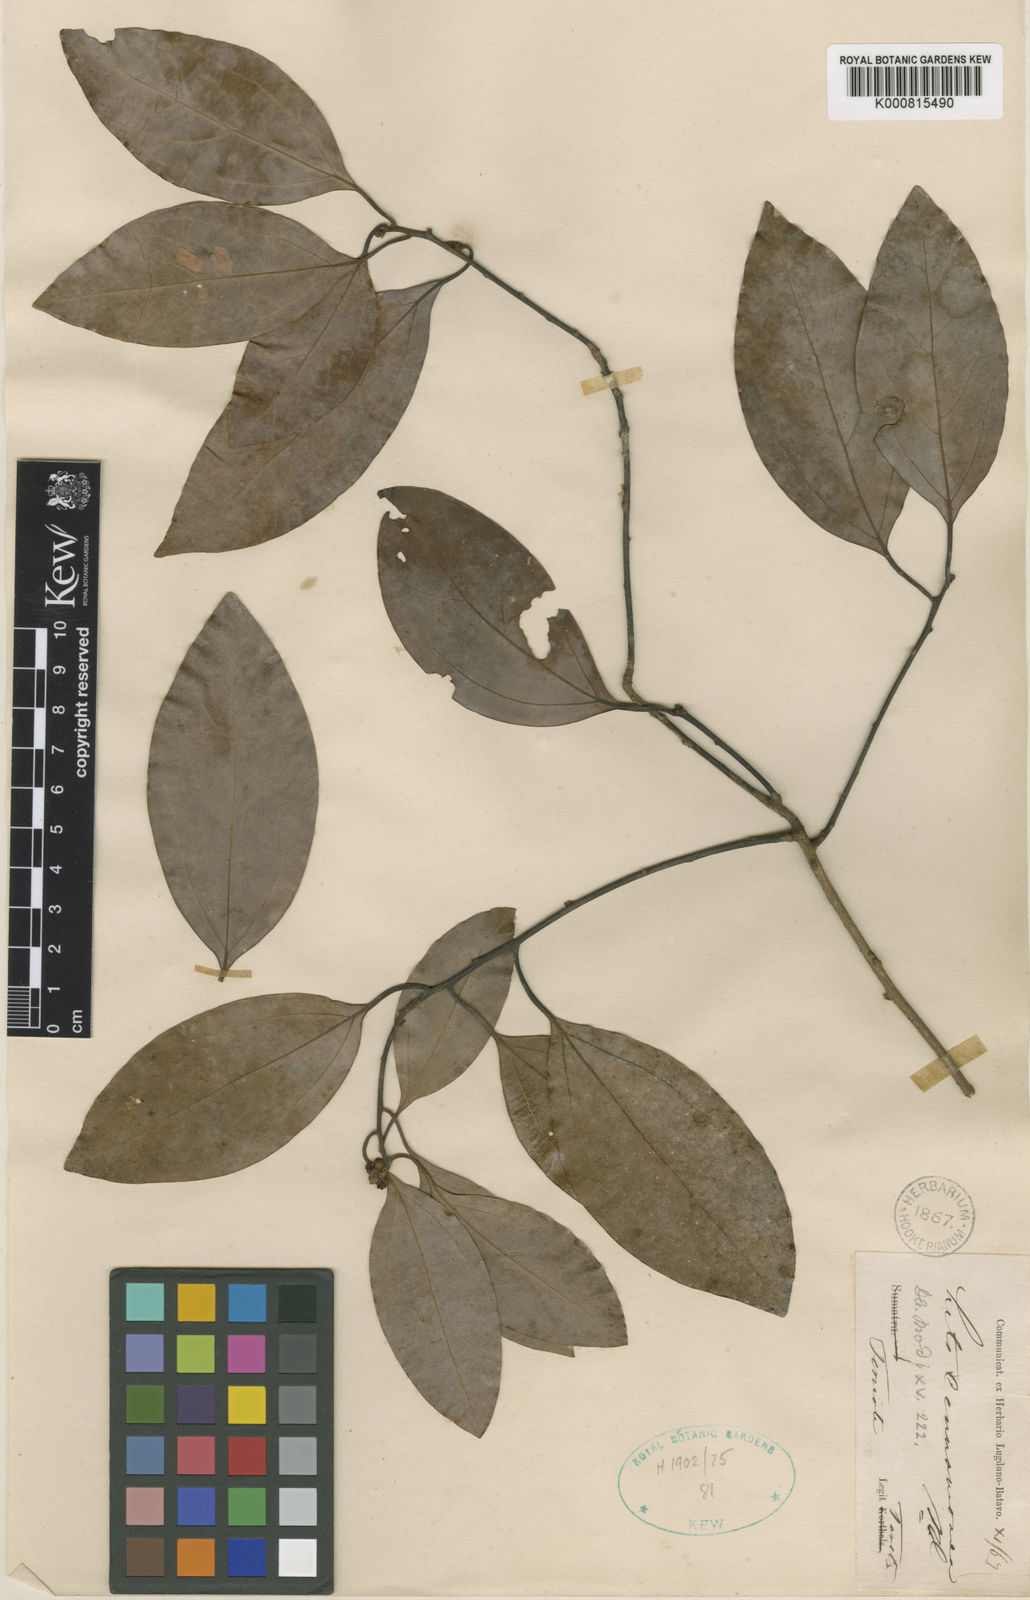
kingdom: Plantae
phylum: Tracheophyta
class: Magnoliopsida
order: Laurales
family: Lauraceae
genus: Neolitsea
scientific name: Neolitsea cinnamomea
